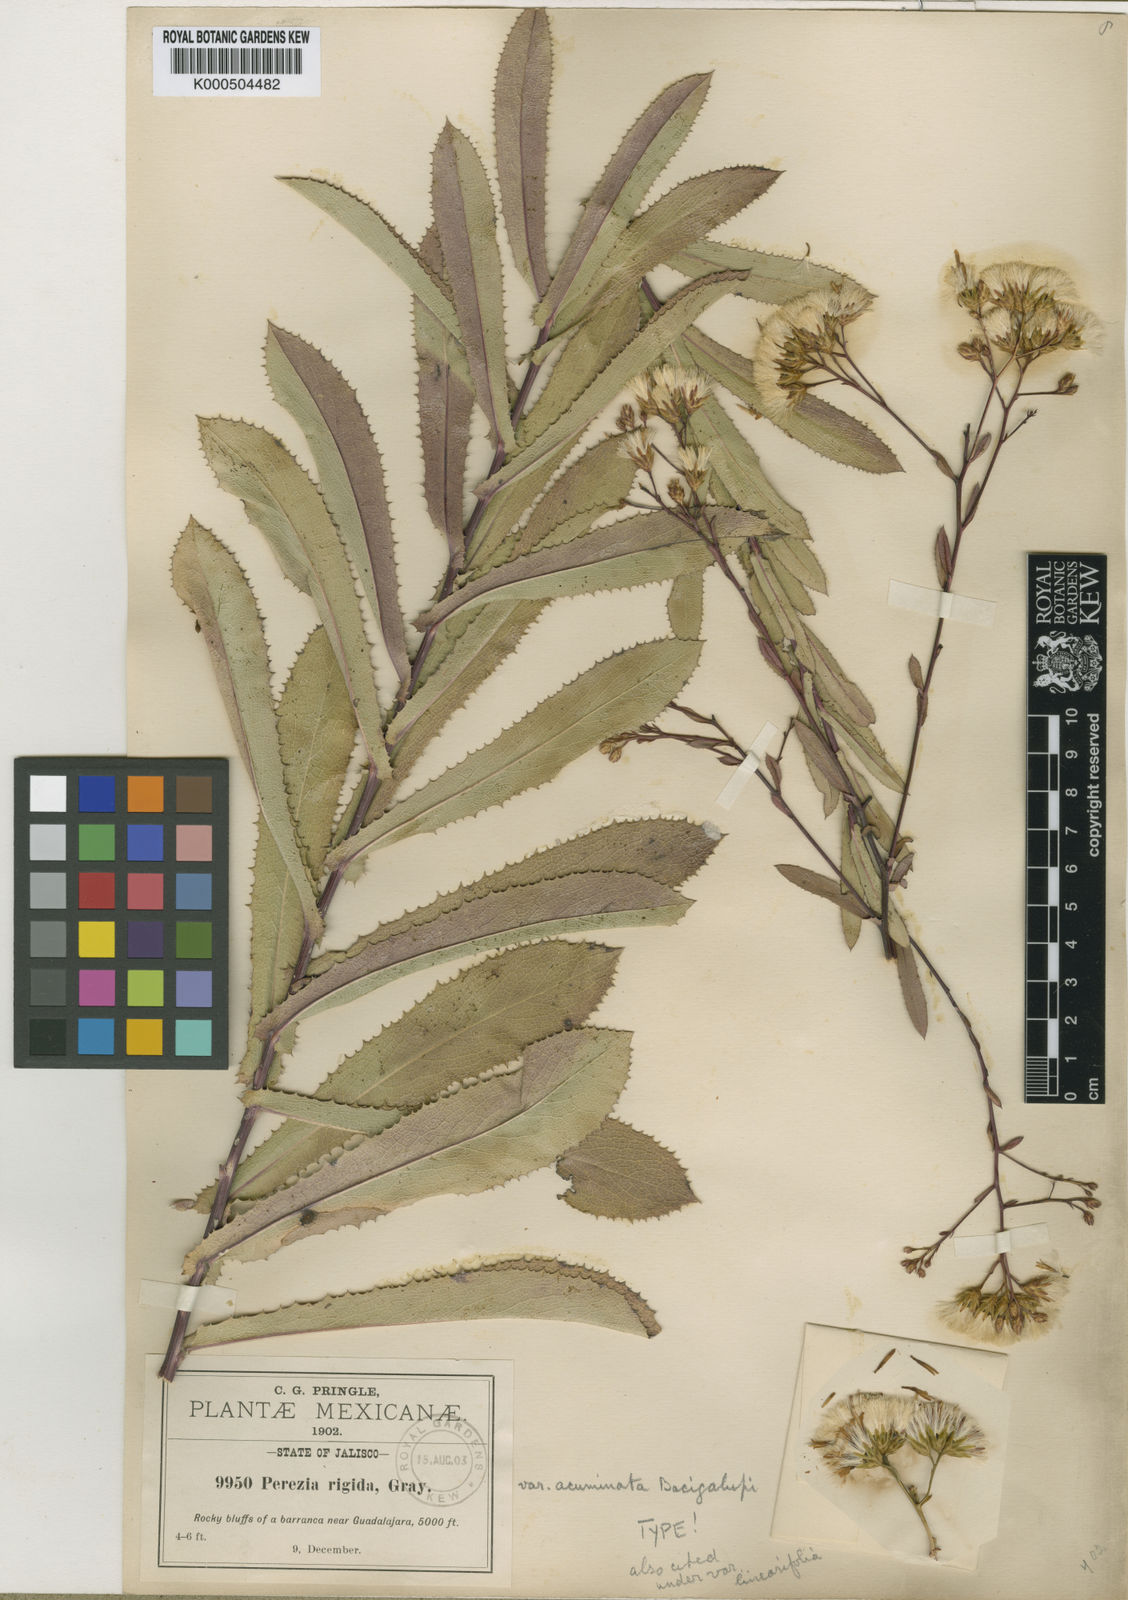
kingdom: Plantae
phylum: Tracheophyta
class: Magnoliopsida
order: Asterales
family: Asteraceae
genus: Acourtia
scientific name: Acourtia fruticosa
